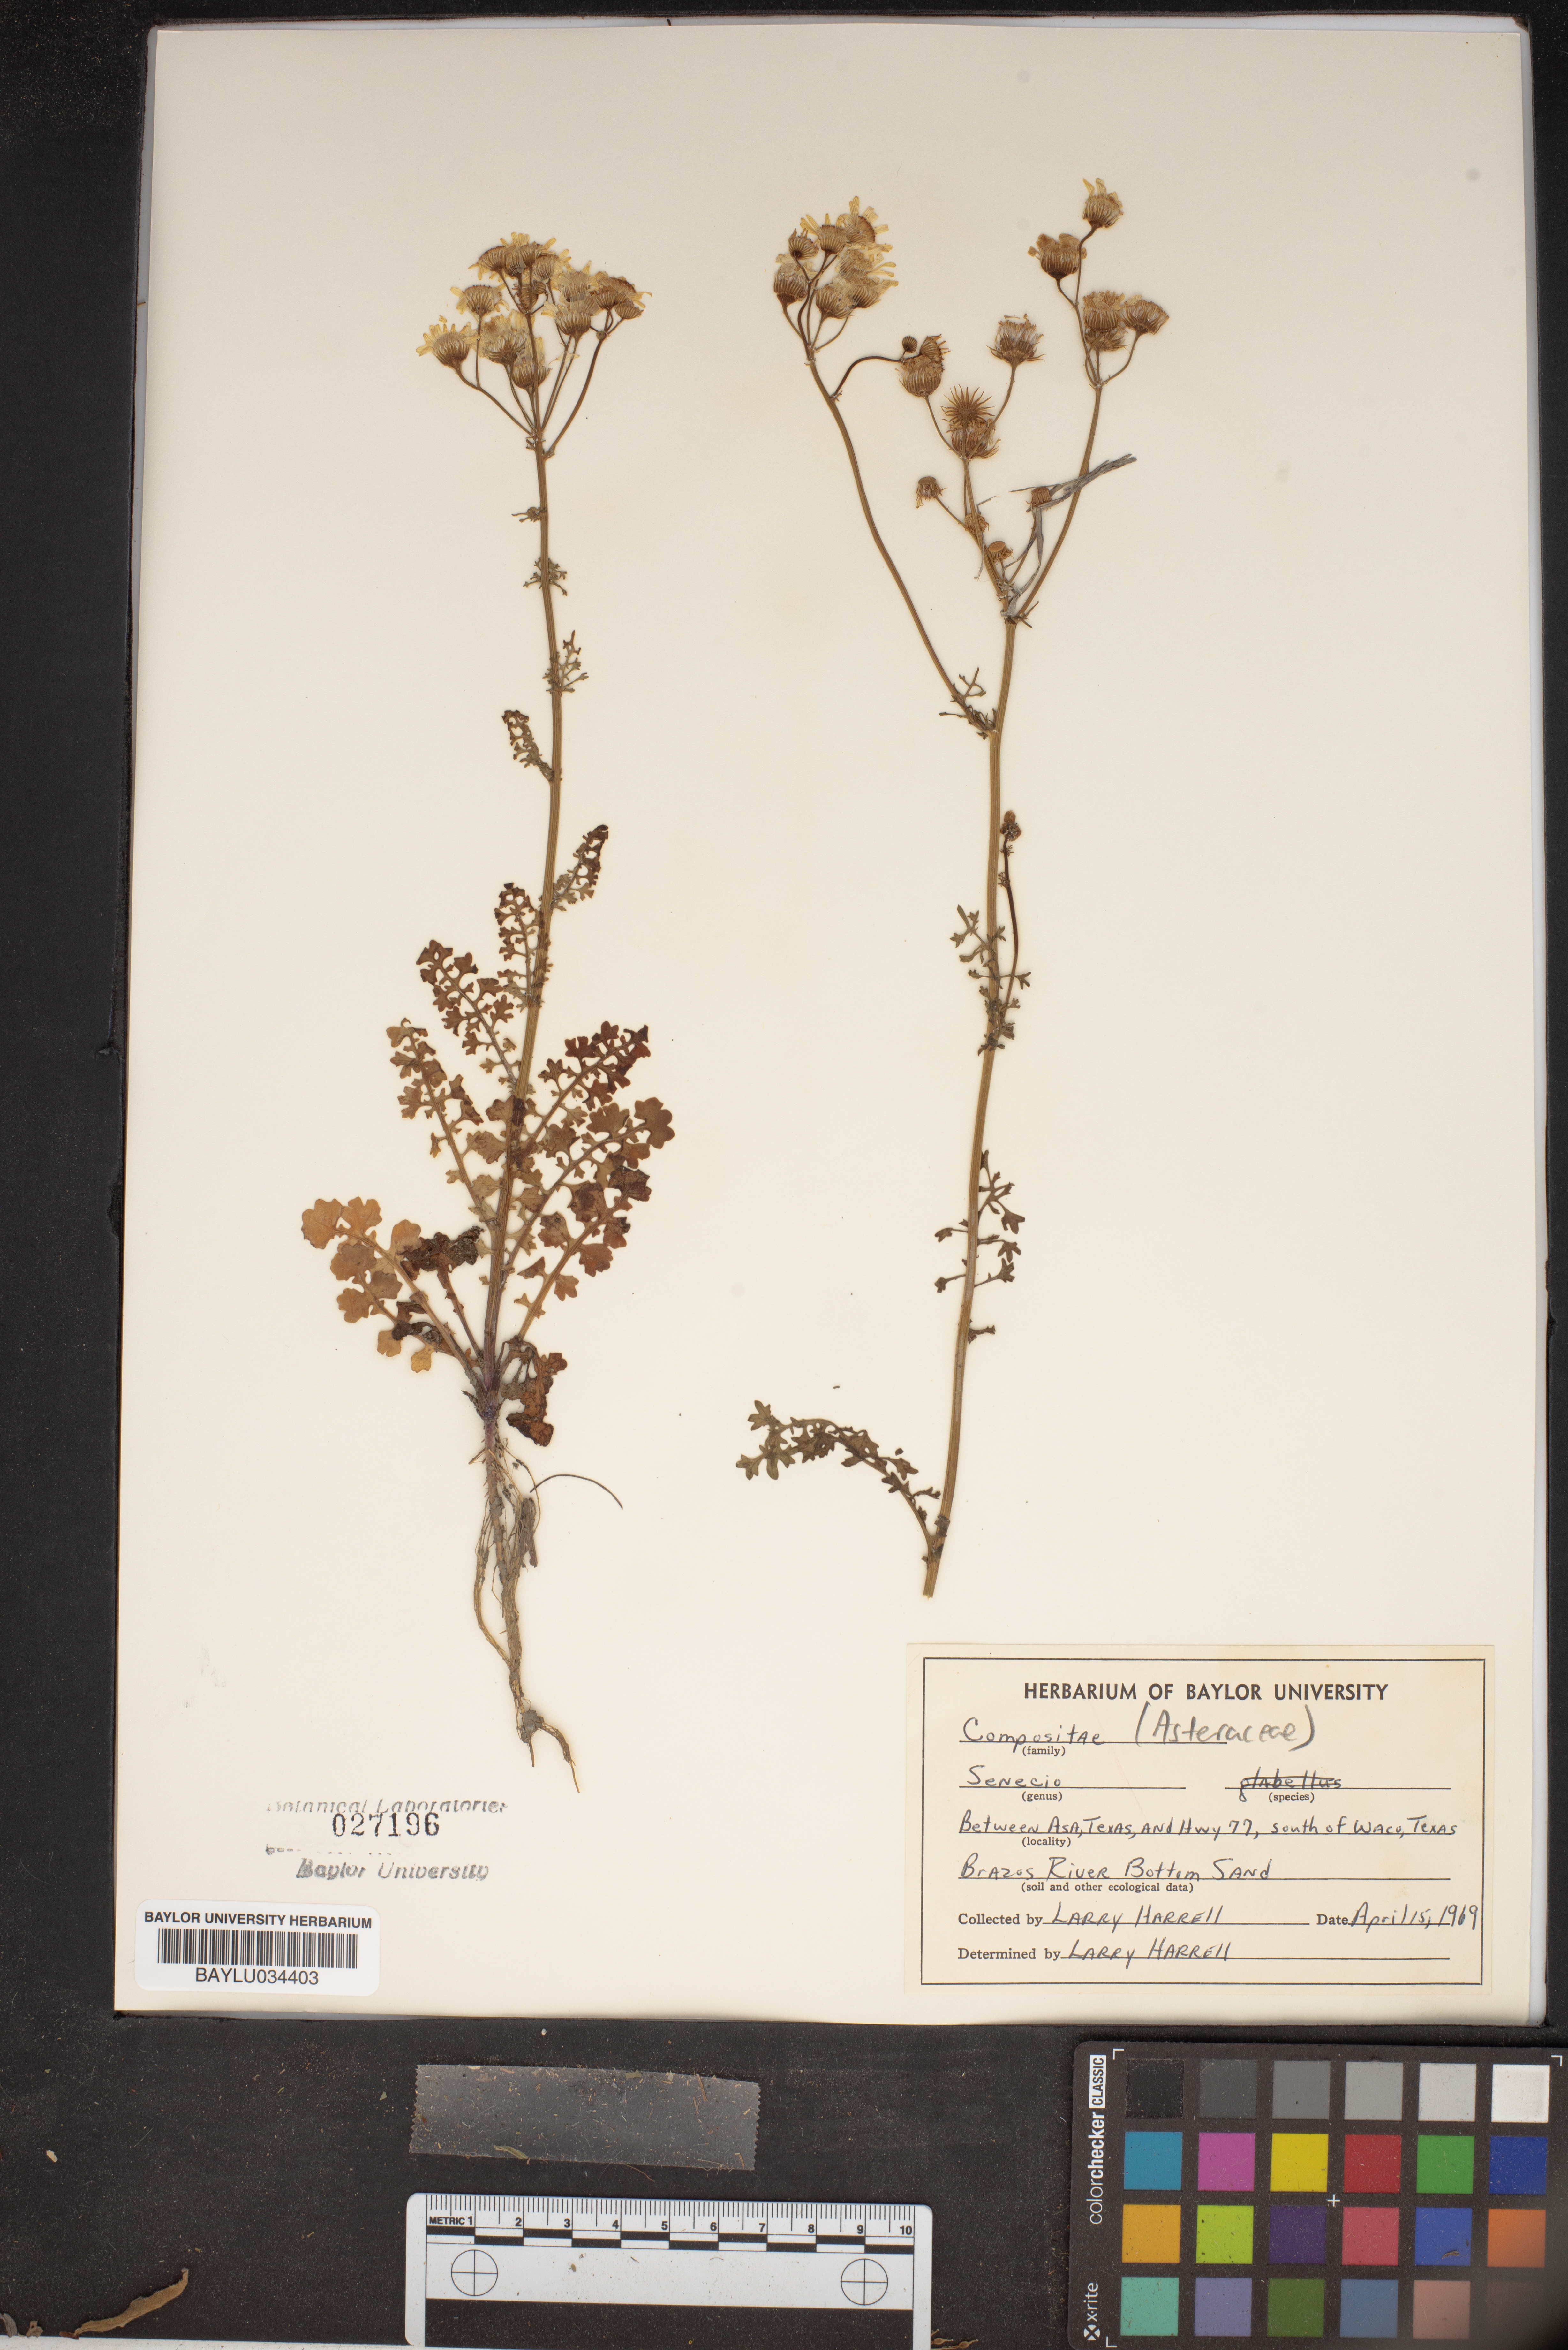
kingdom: Plantae
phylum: Tracheophyta
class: Magnoliopsida
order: Asterales
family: Asteraceae
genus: Senecio
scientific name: Senecio
